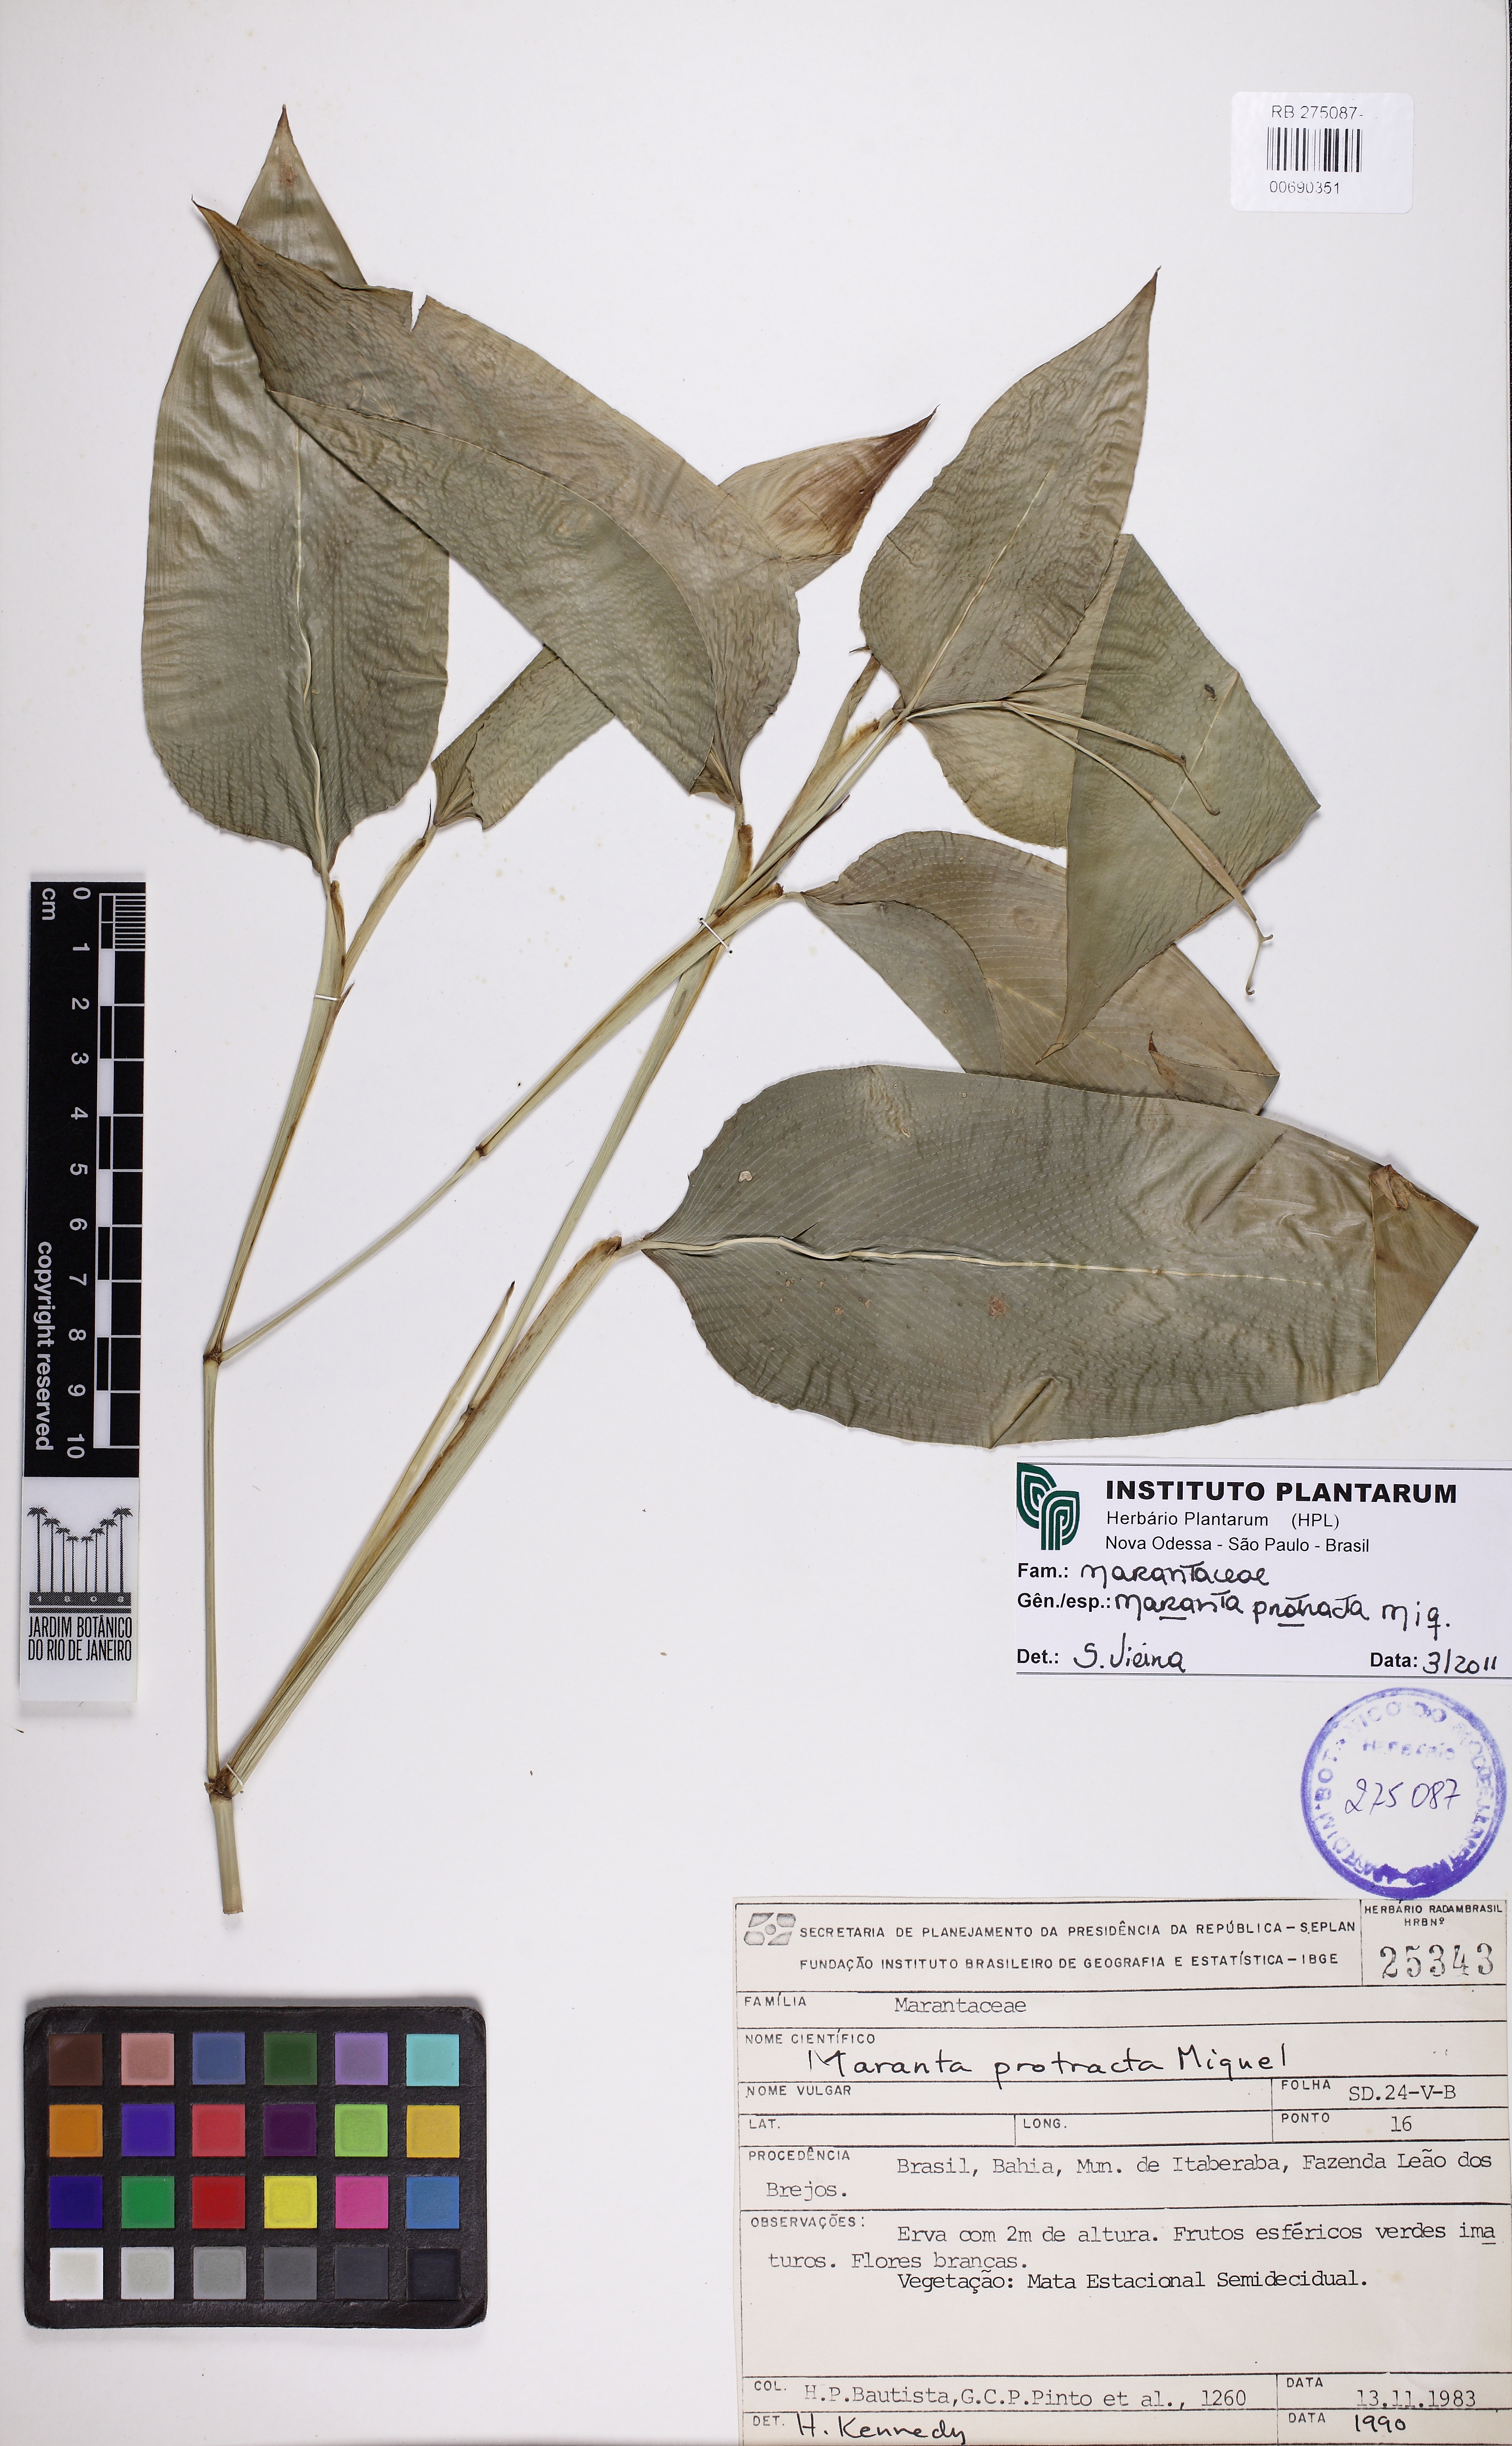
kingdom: Plantae
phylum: Tracheophyta
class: Liliopsida
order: Zingiberales
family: Marantaceae
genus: Maranta
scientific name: Maranta protracta
